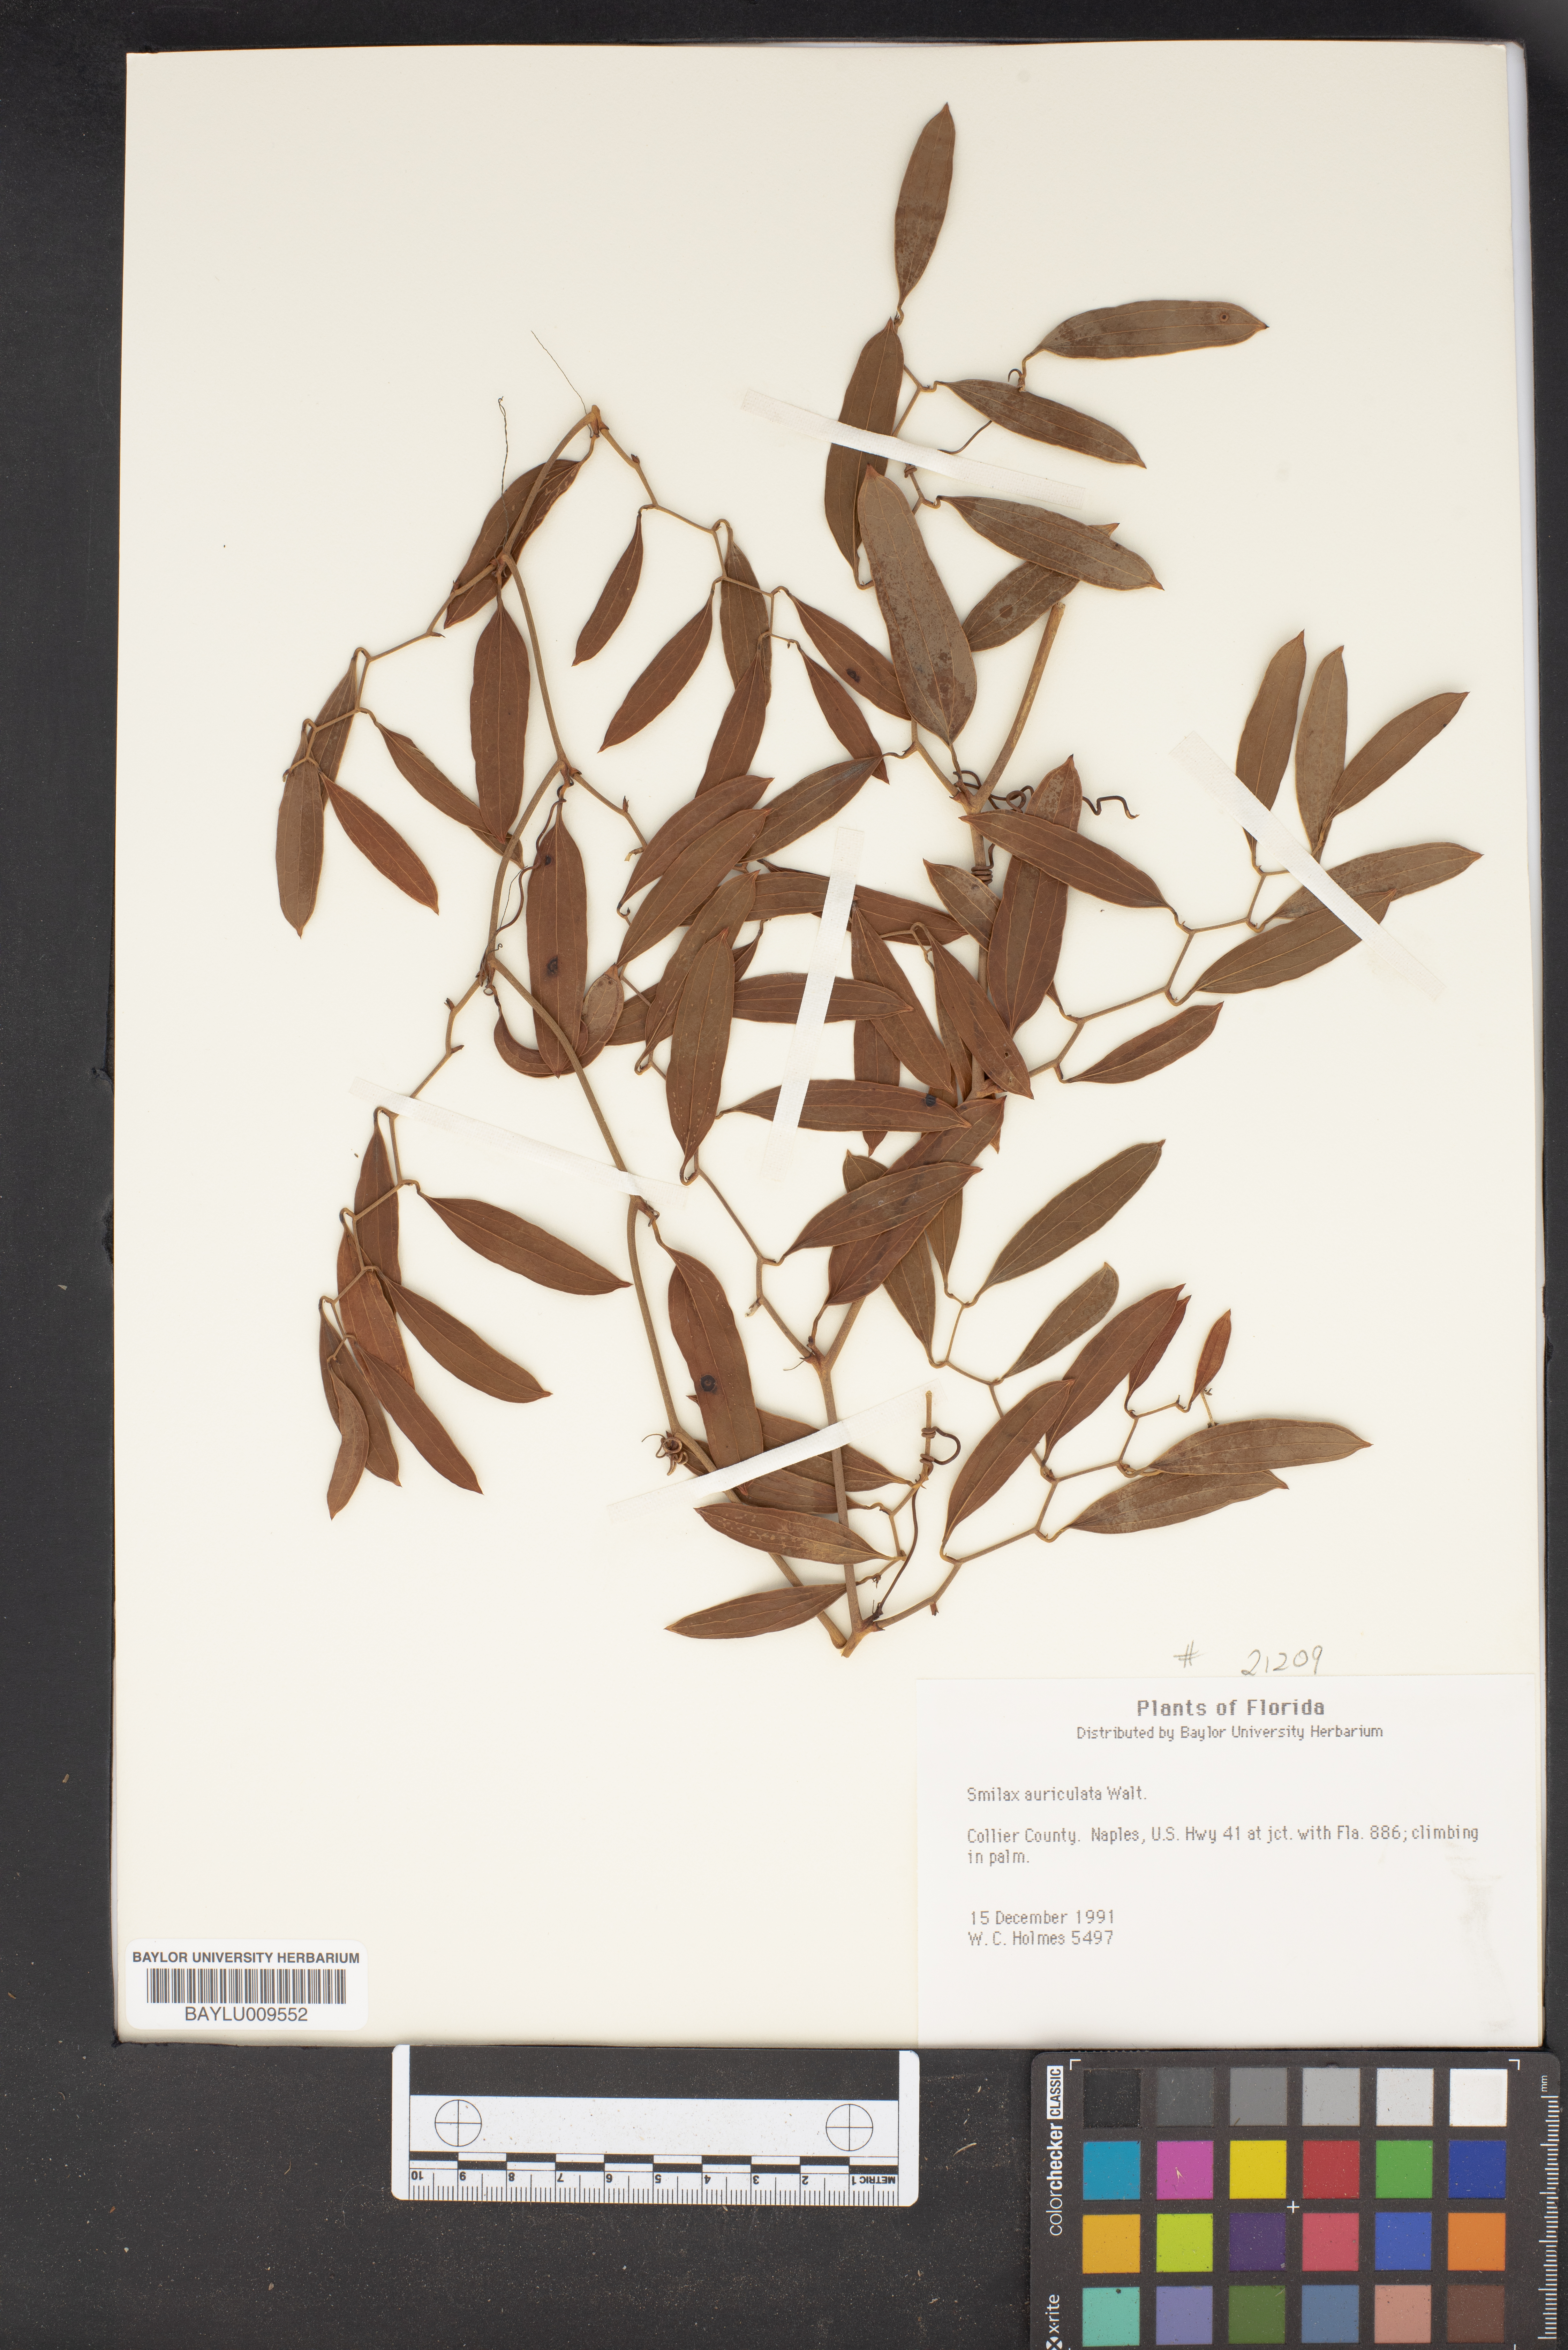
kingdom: Plantae
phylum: Tracheophyta
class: Liliopsida
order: Liliales
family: Smilacaceae
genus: Smilax
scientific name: Smilax auriculata
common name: Wild bamboo
